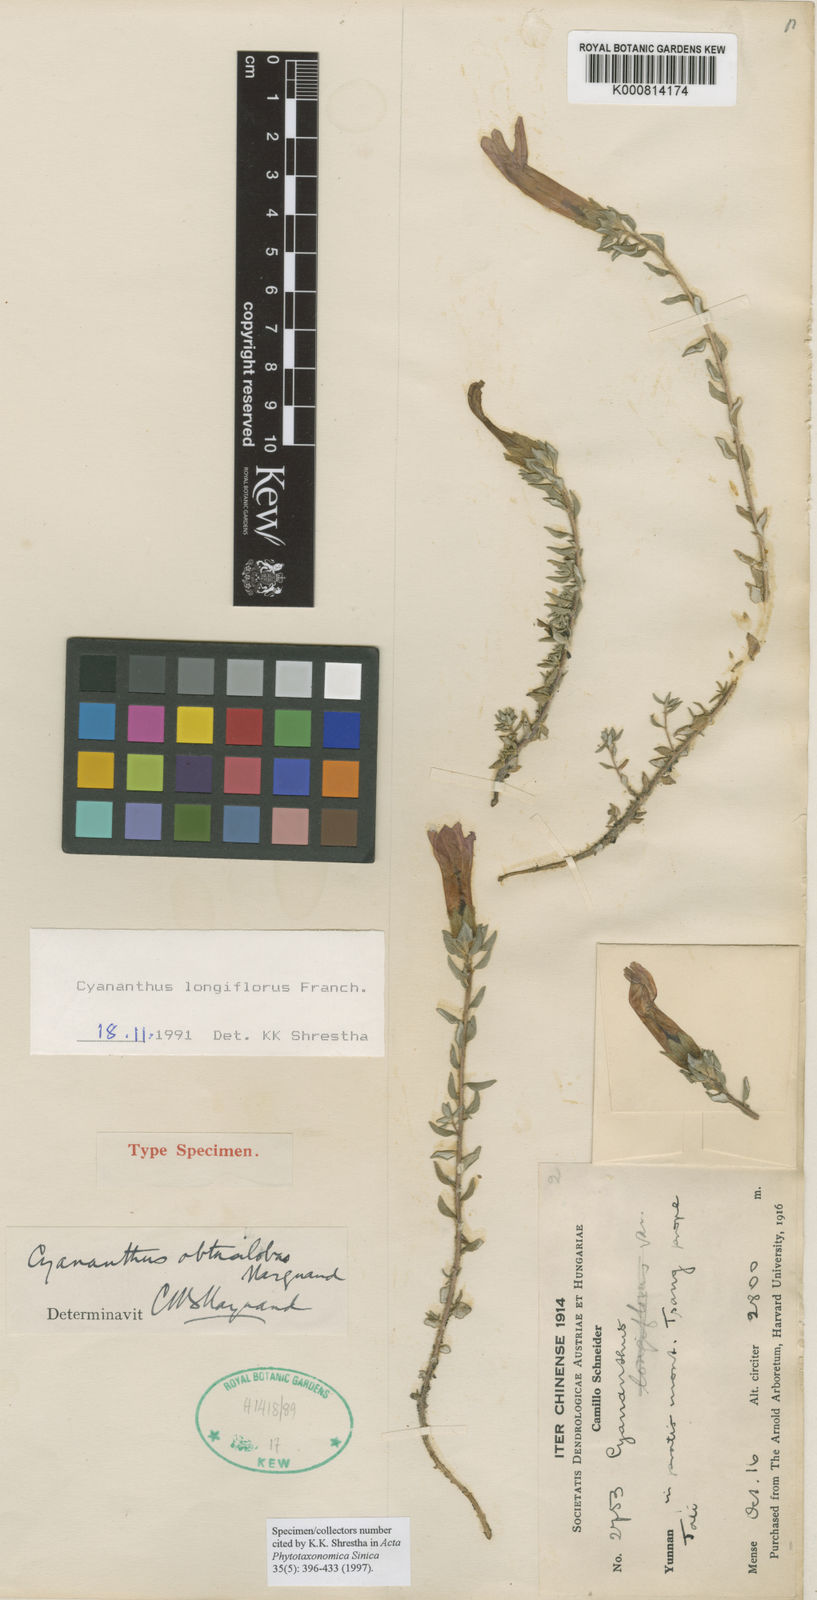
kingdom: Plantae
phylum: Tracheophyta
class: Magnoliopsida
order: Asterales
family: Campanulaceae
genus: Cyananthus
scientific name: Cyananthus longiflorus
